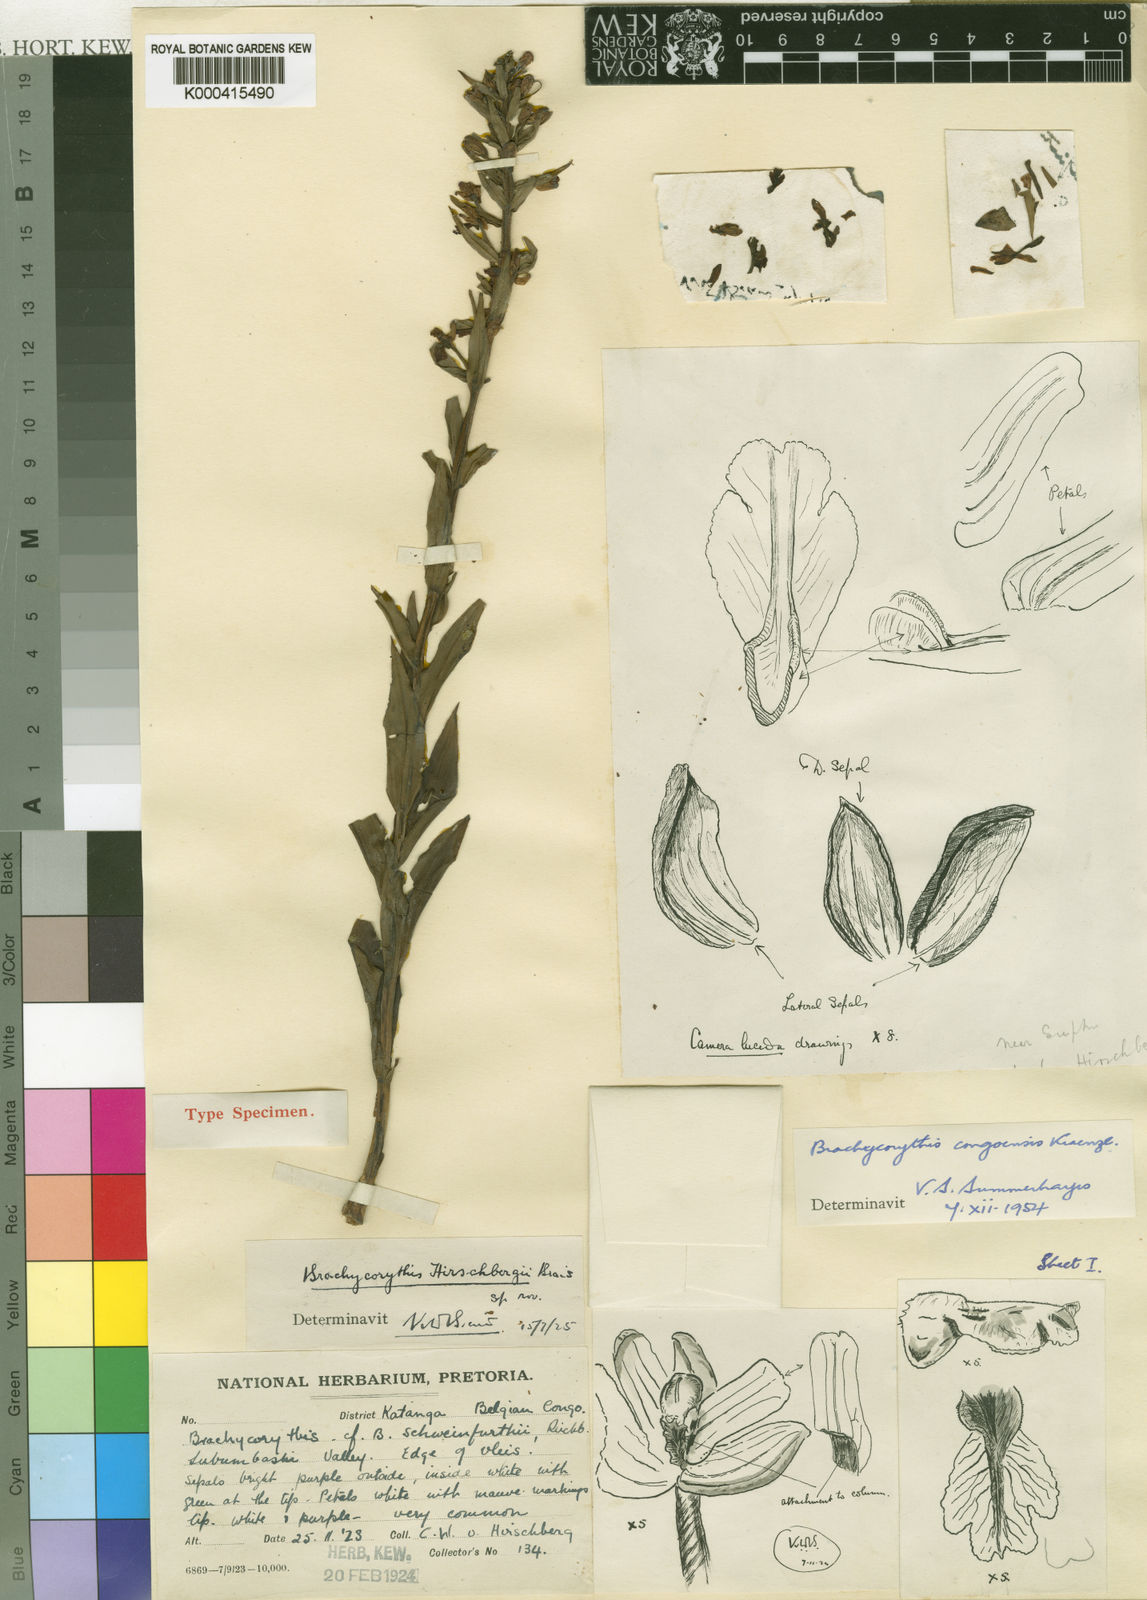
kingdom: Plantae
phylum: Tracheophyta
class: Liliopsida
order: Asparagales
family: Orchidaceae
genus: Brachycorythis
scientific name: Brachycorythis congoensis
